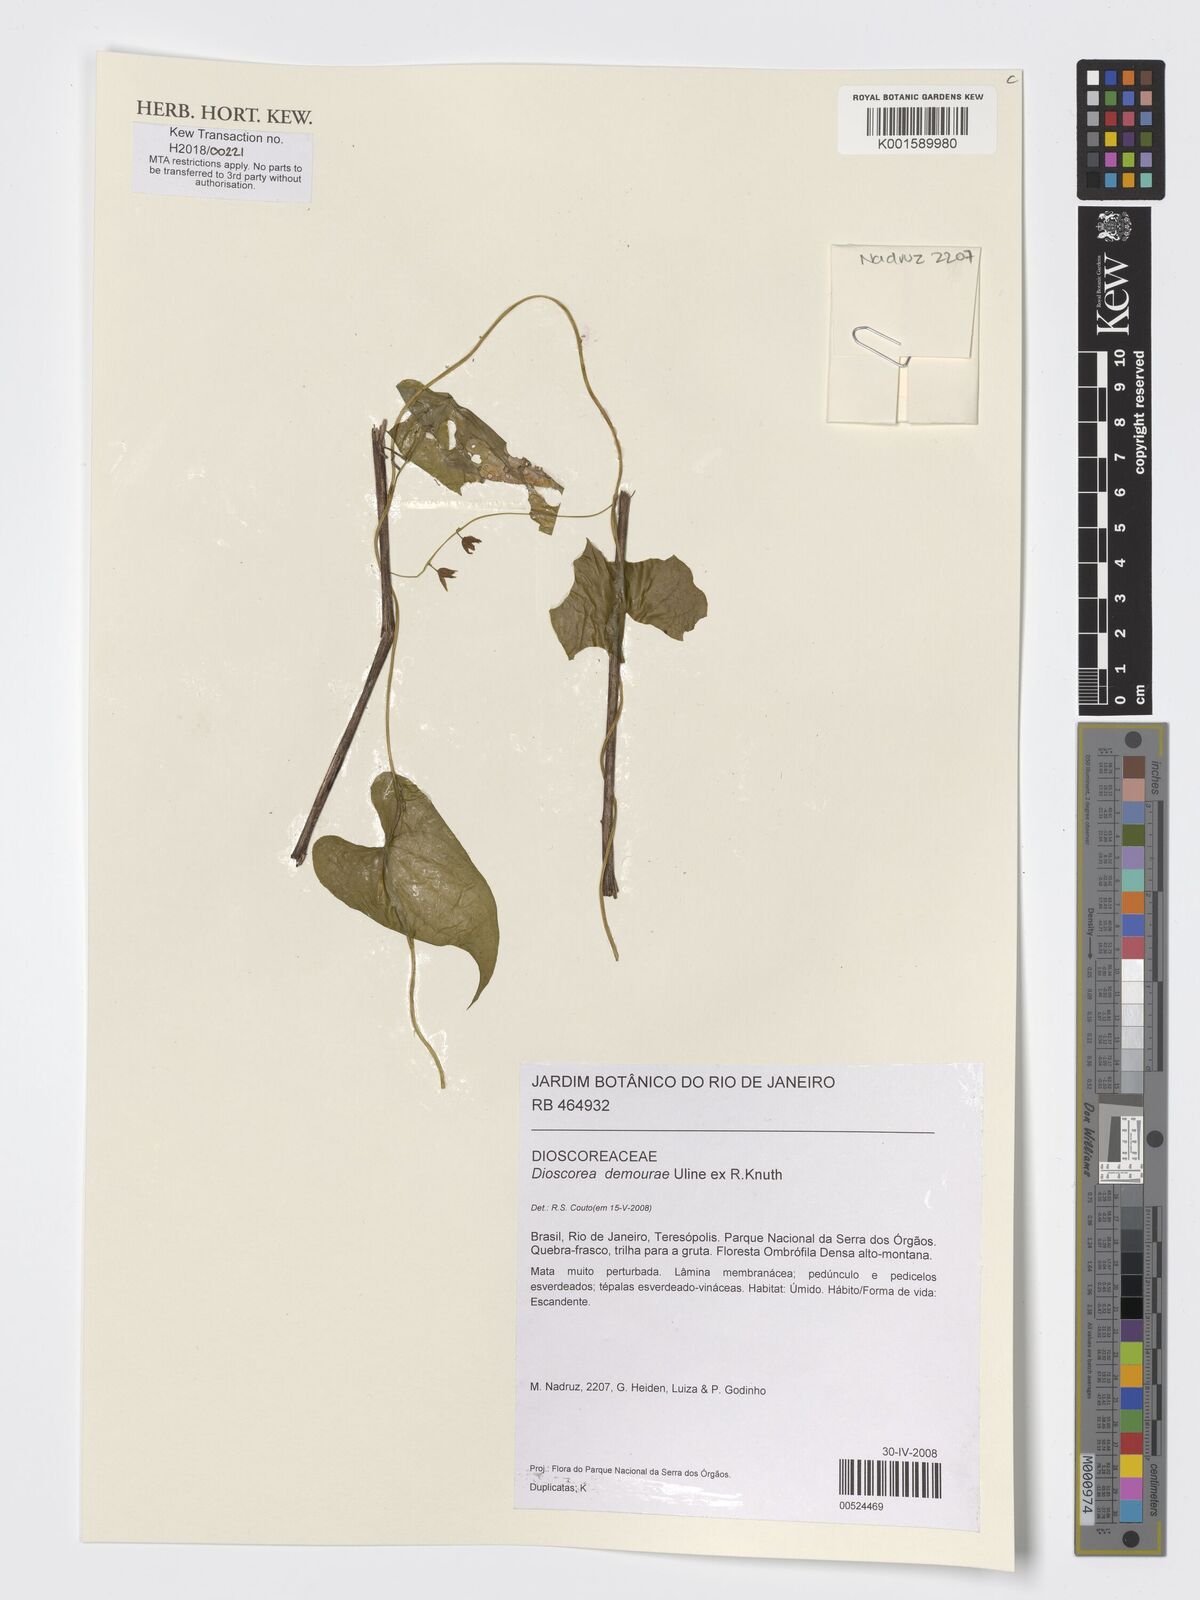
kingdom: Plantae
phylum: Tracheophyta
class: Liliopsida
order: Dioscoreales
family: Dioscoreaceae
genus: Dioscorea
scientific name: Dioscorea demourae
